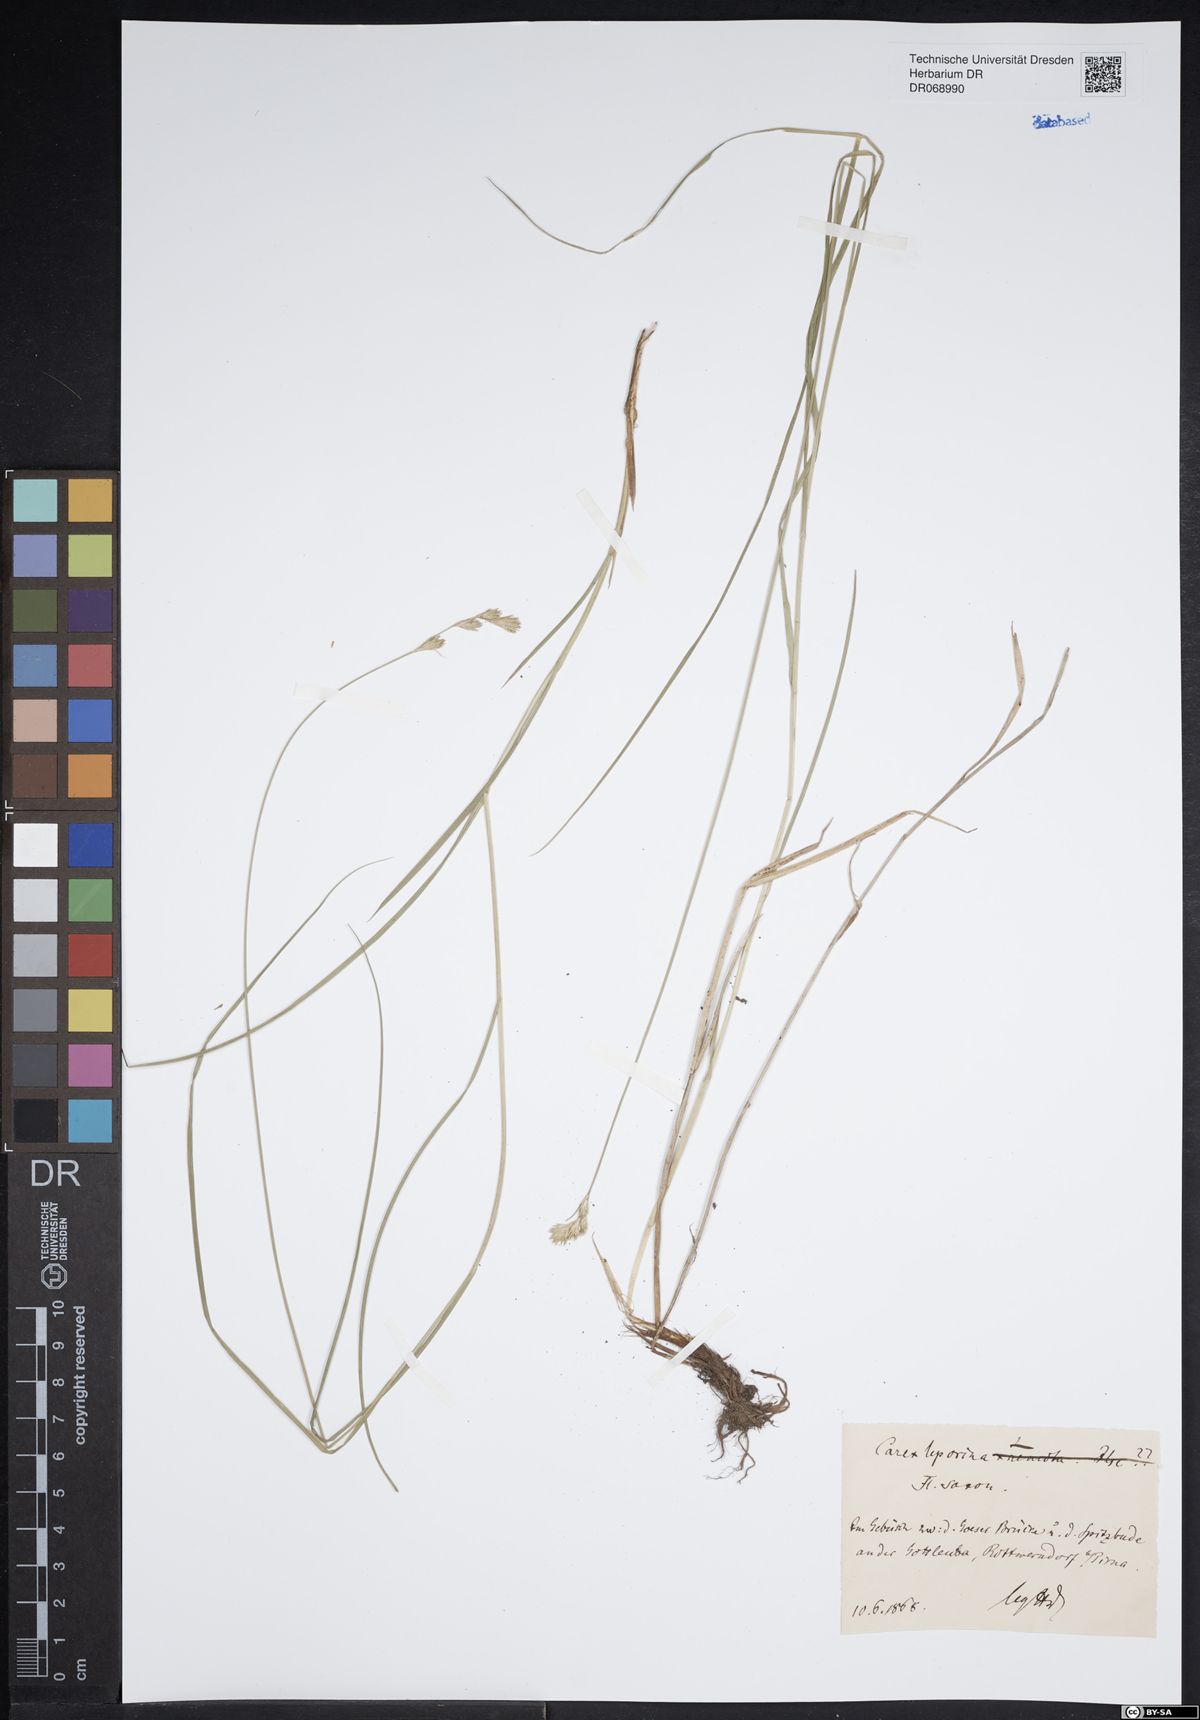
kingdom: Plantae
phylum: Tracheophyta
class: Liliopsida
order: Poales
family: Cyperaceae
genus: Carex
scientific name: Carex leporina
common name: Oval sedge
